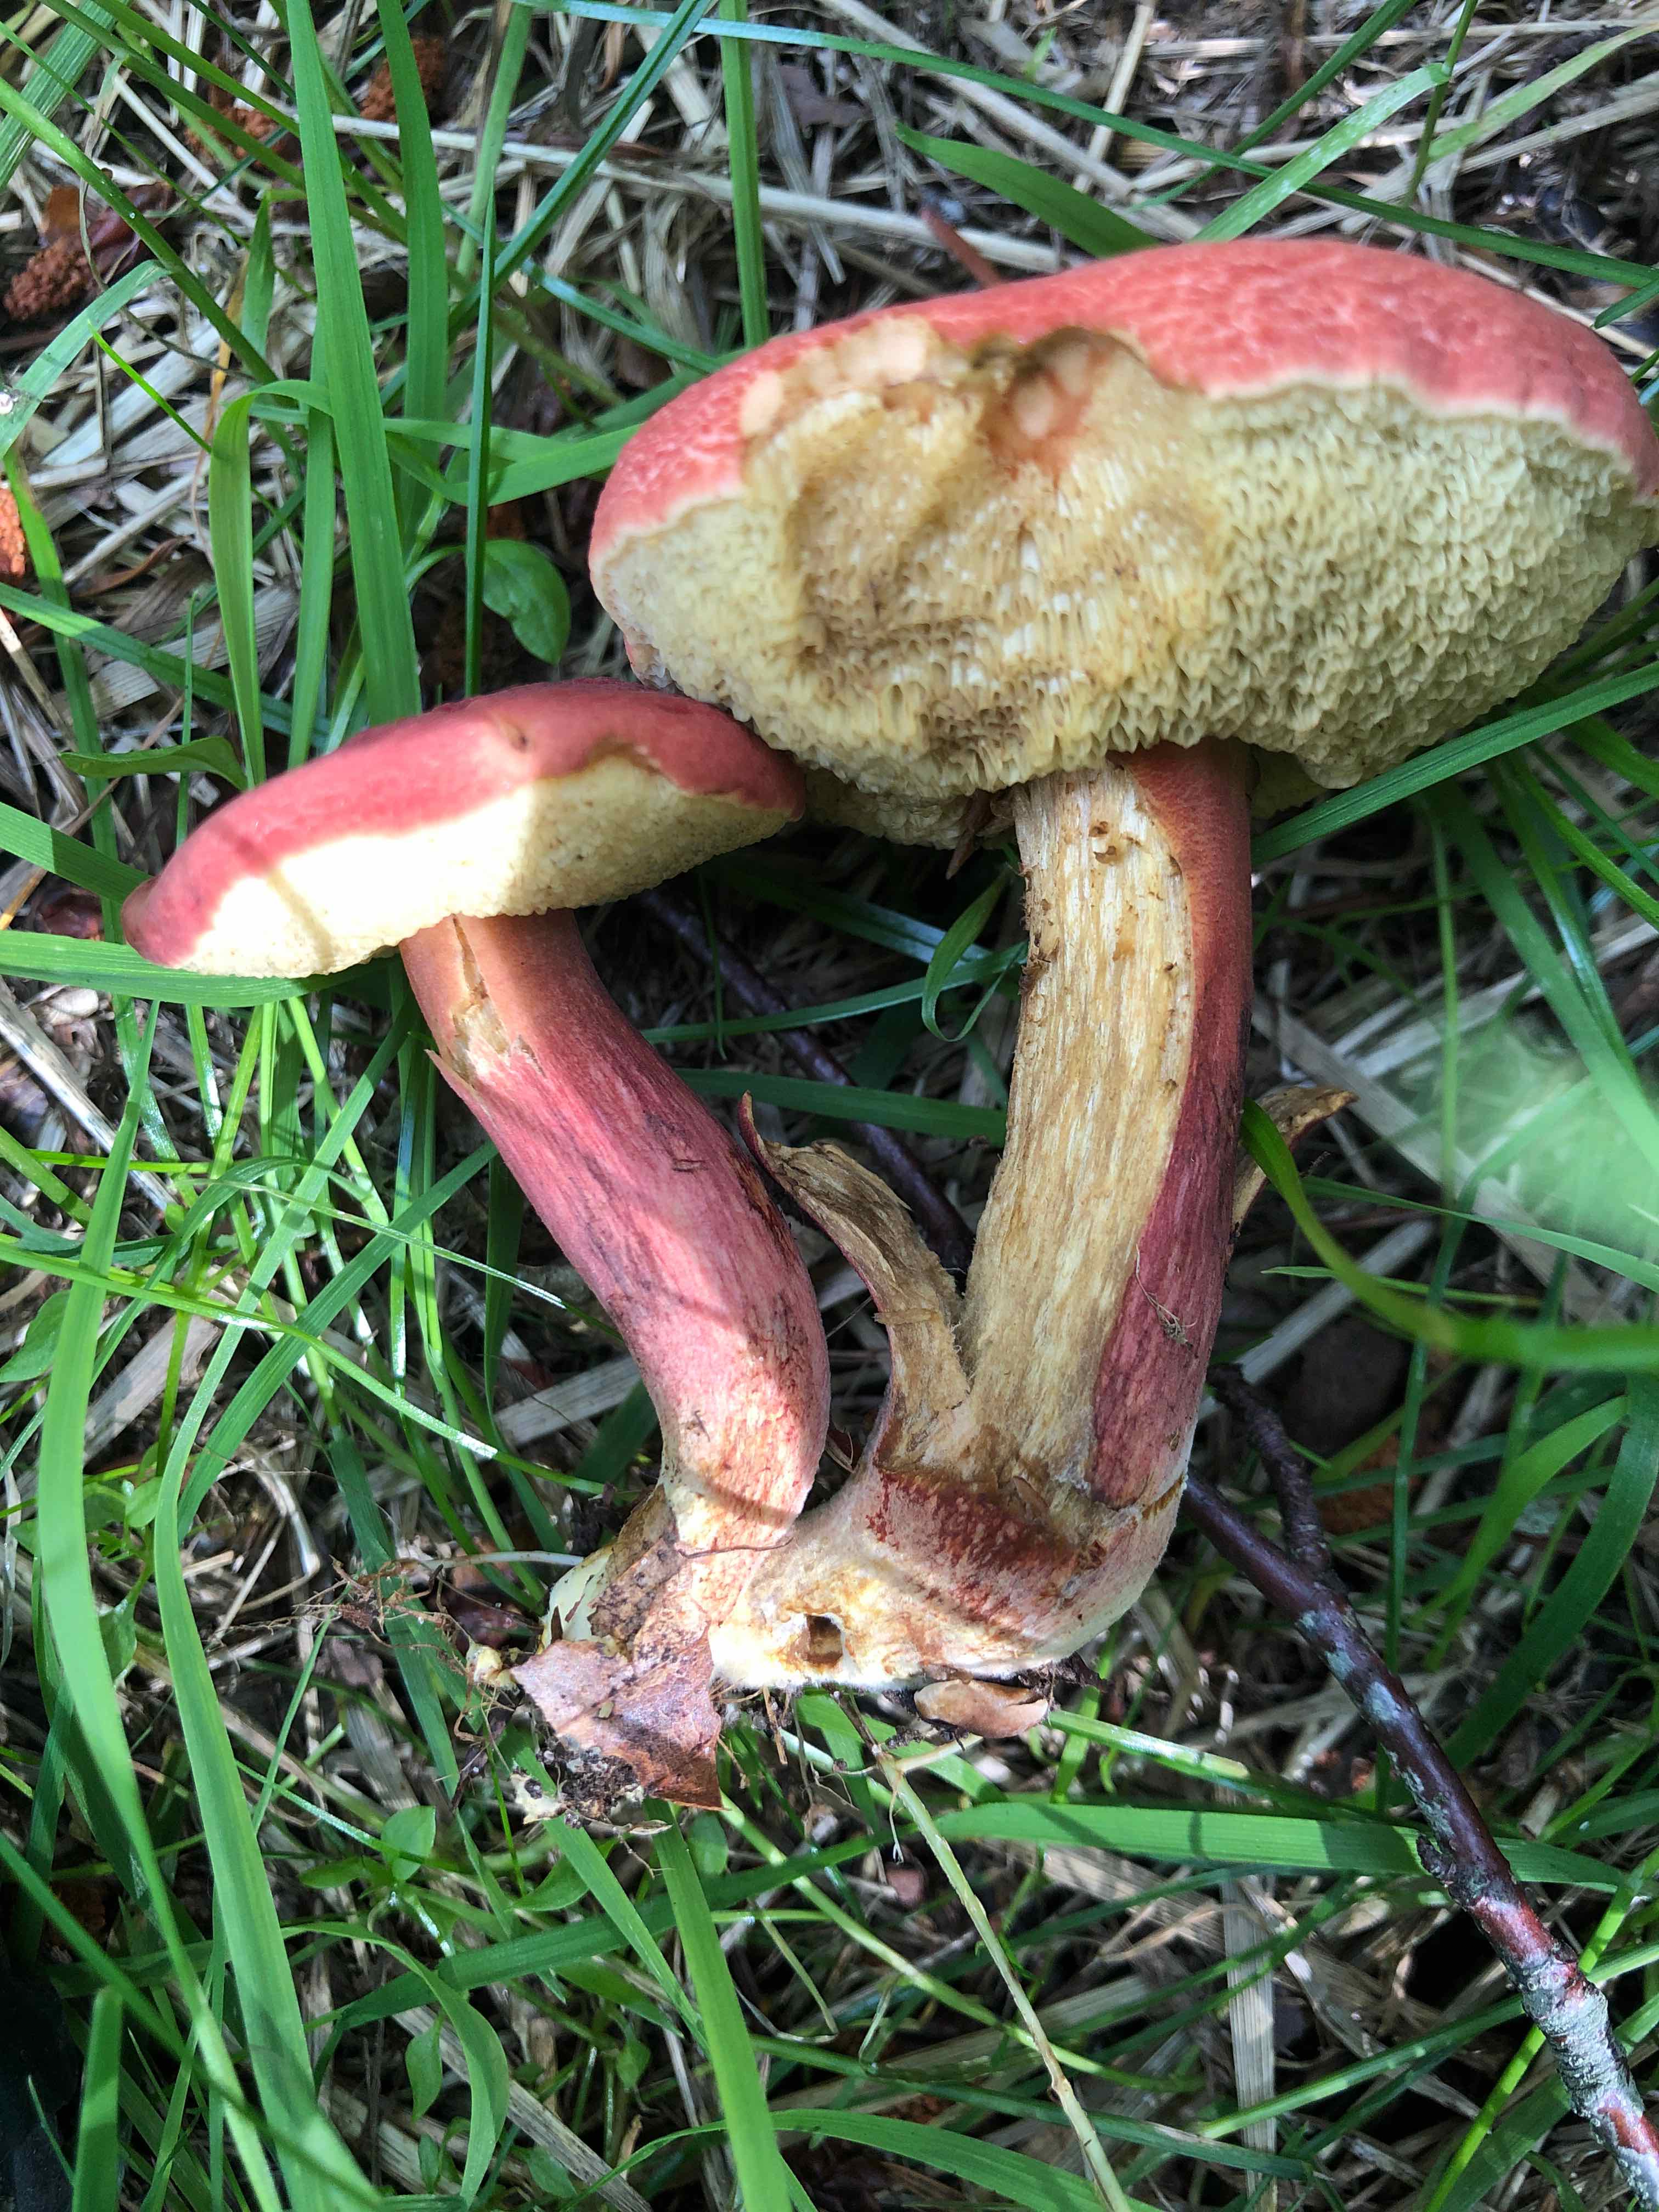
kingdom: Fungi
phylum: Basidiomycota
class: Agaricomycetes
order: Boletales
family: Boletaceae
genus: Hortiboletus
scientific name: Hortiboletus rubellus
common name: blodrød rørhat
